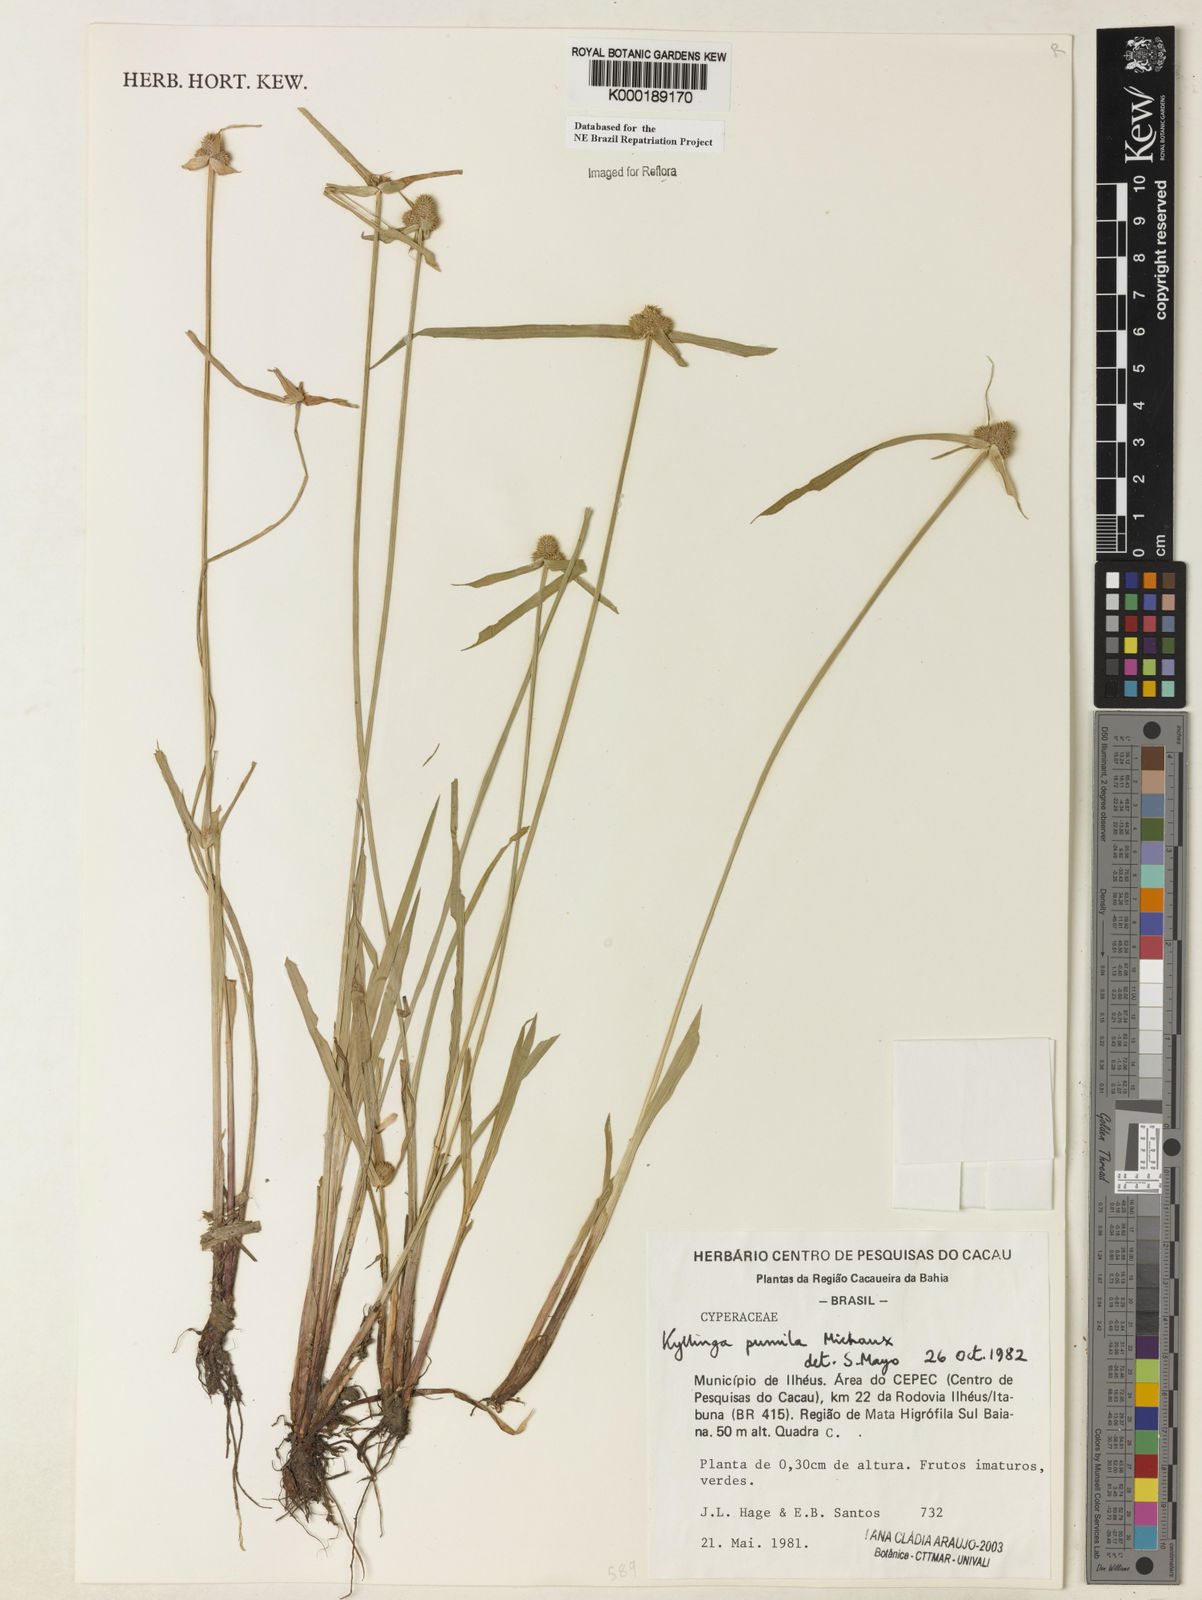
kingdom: Plantae
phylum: Tracheophyta
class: Liliopsida
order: Poales
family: Cyperaceae
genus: Cyperus
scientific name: Cyperus hortensis
